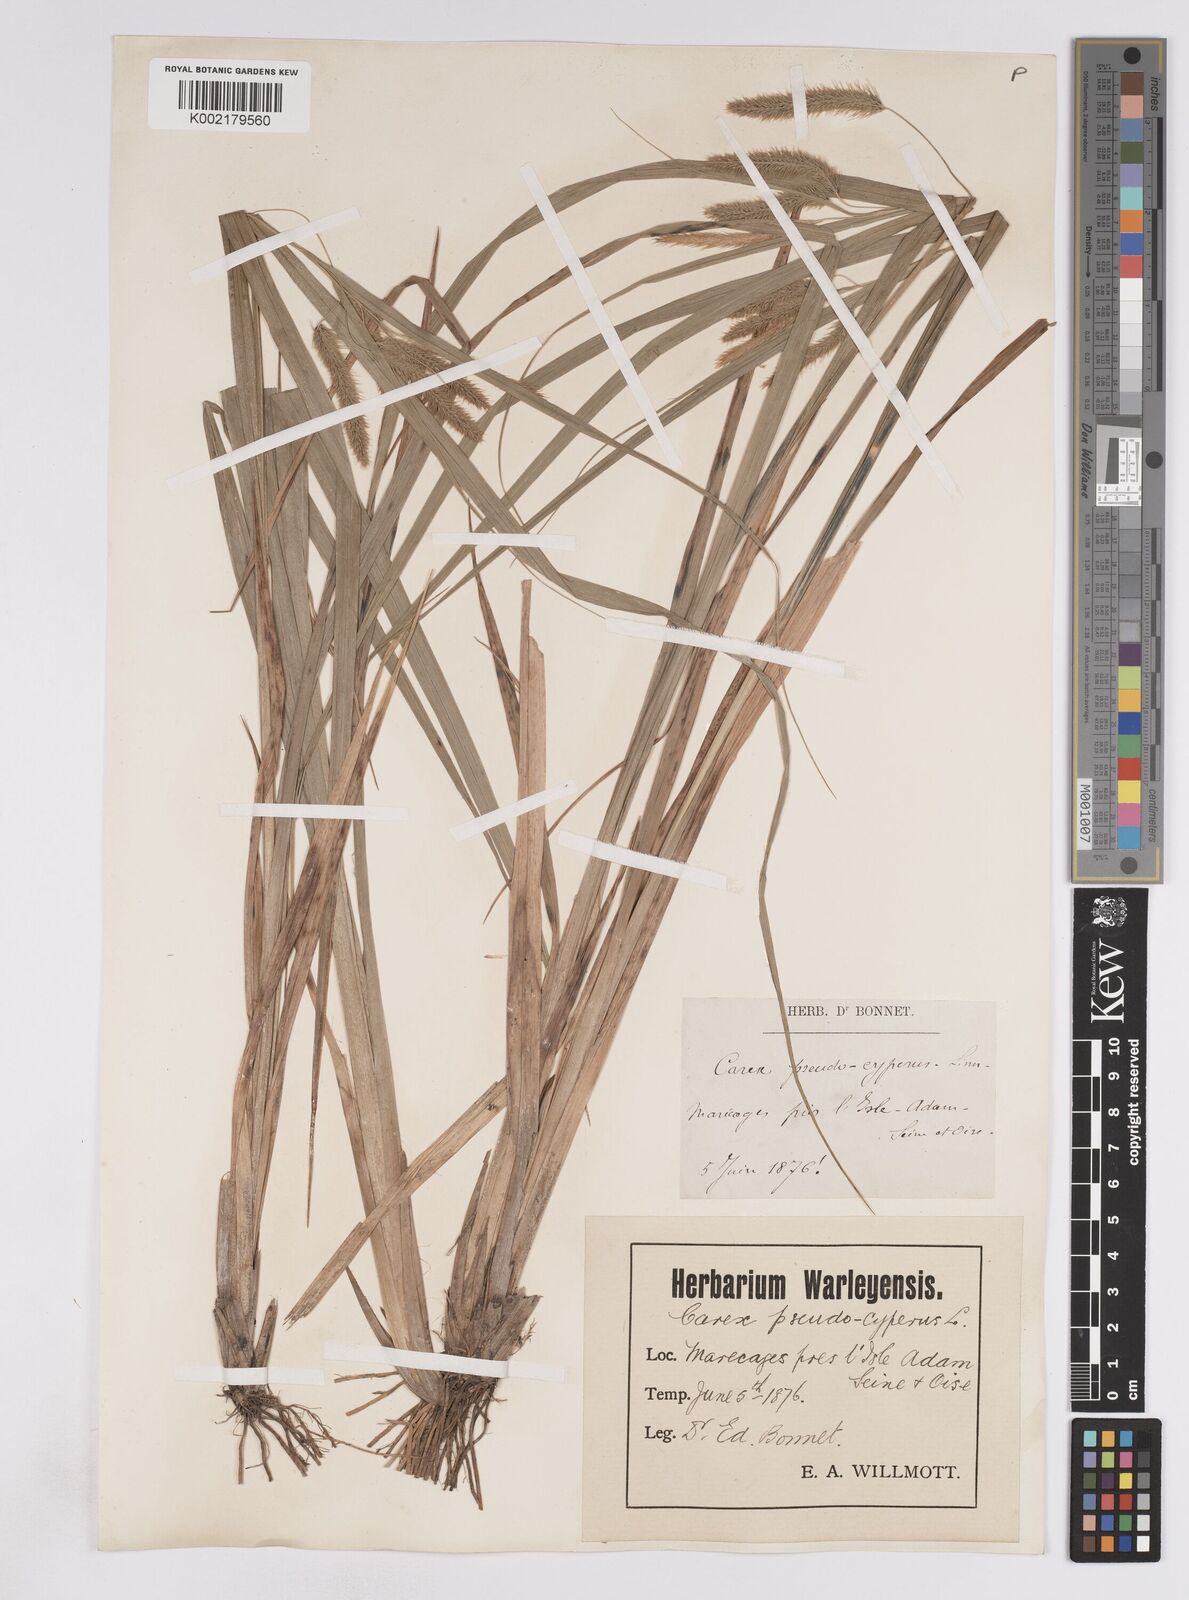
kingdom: Plantae
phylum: Tracheophyta
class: Liliopsida
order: Poales
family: Cyperaceae
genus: Carex
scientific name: Carex pseudocyperus
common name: Cyperus sedge
